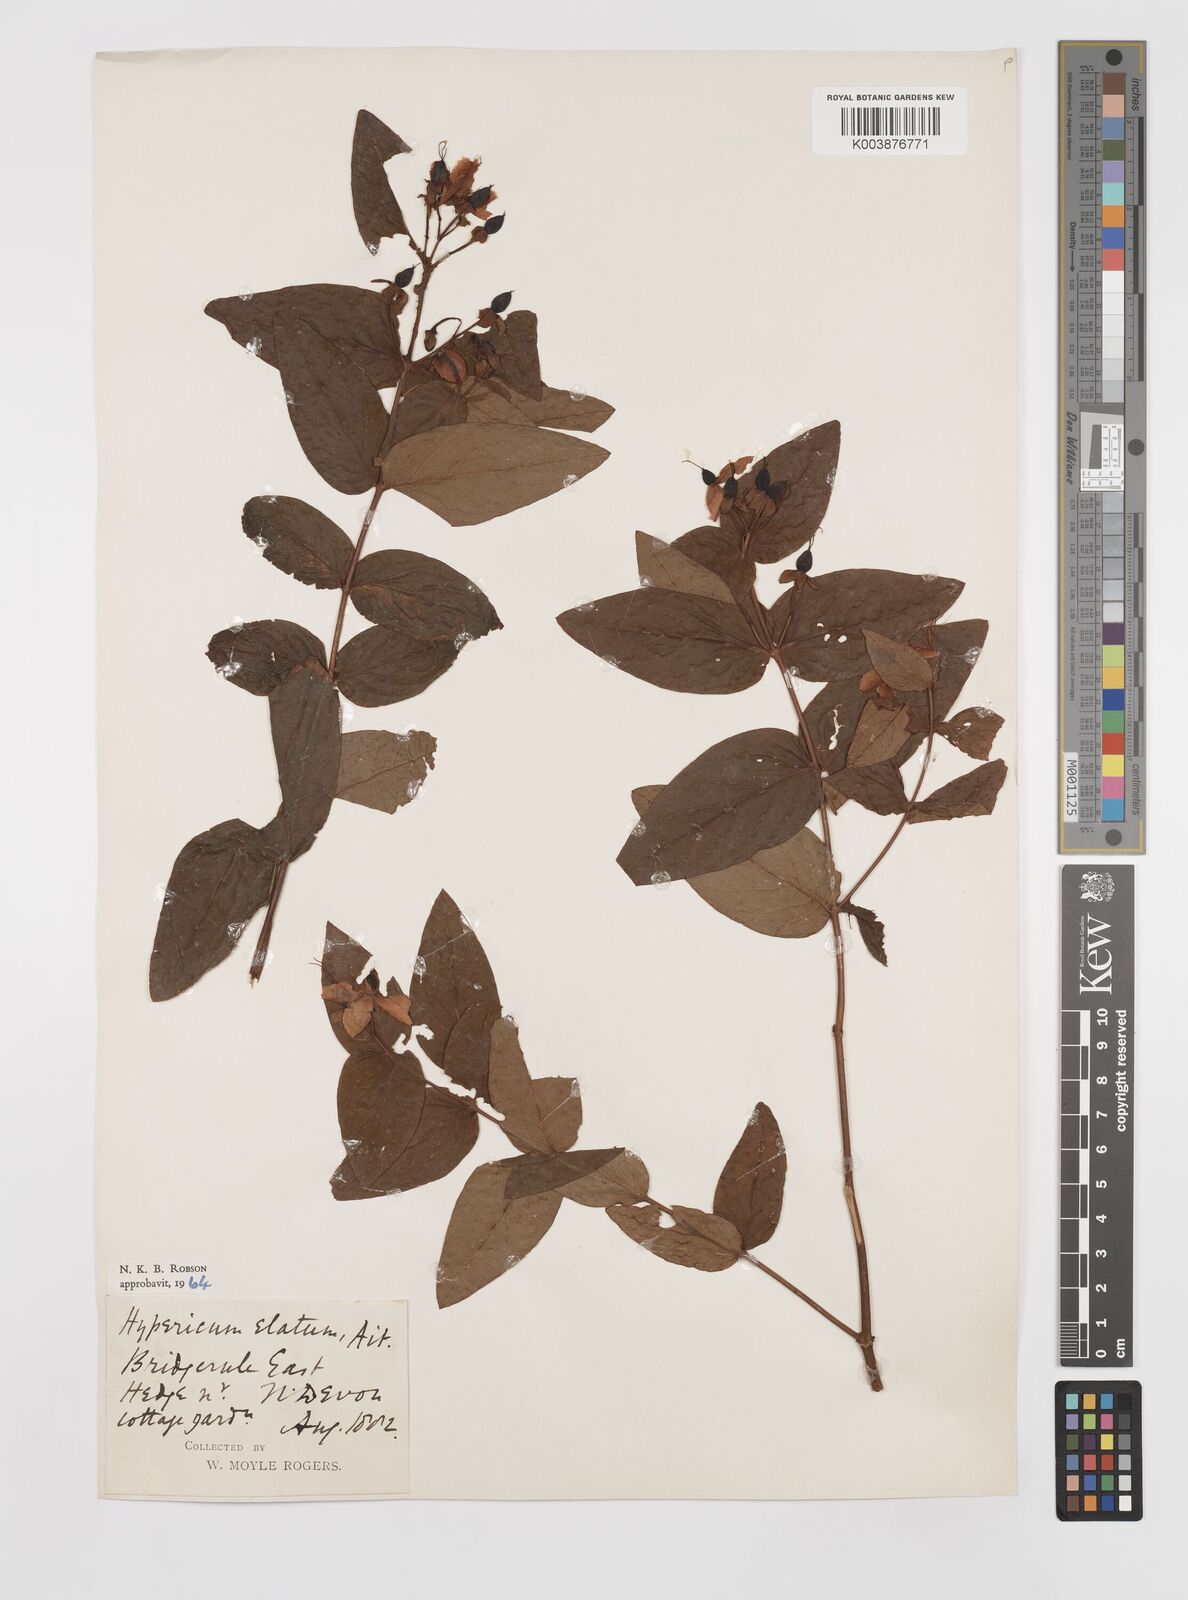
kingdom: Plantae
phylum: Tracheophyta
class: Magnoliopsida
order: Malpighiales
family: Hypericaceae
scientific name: Hypericaceae
